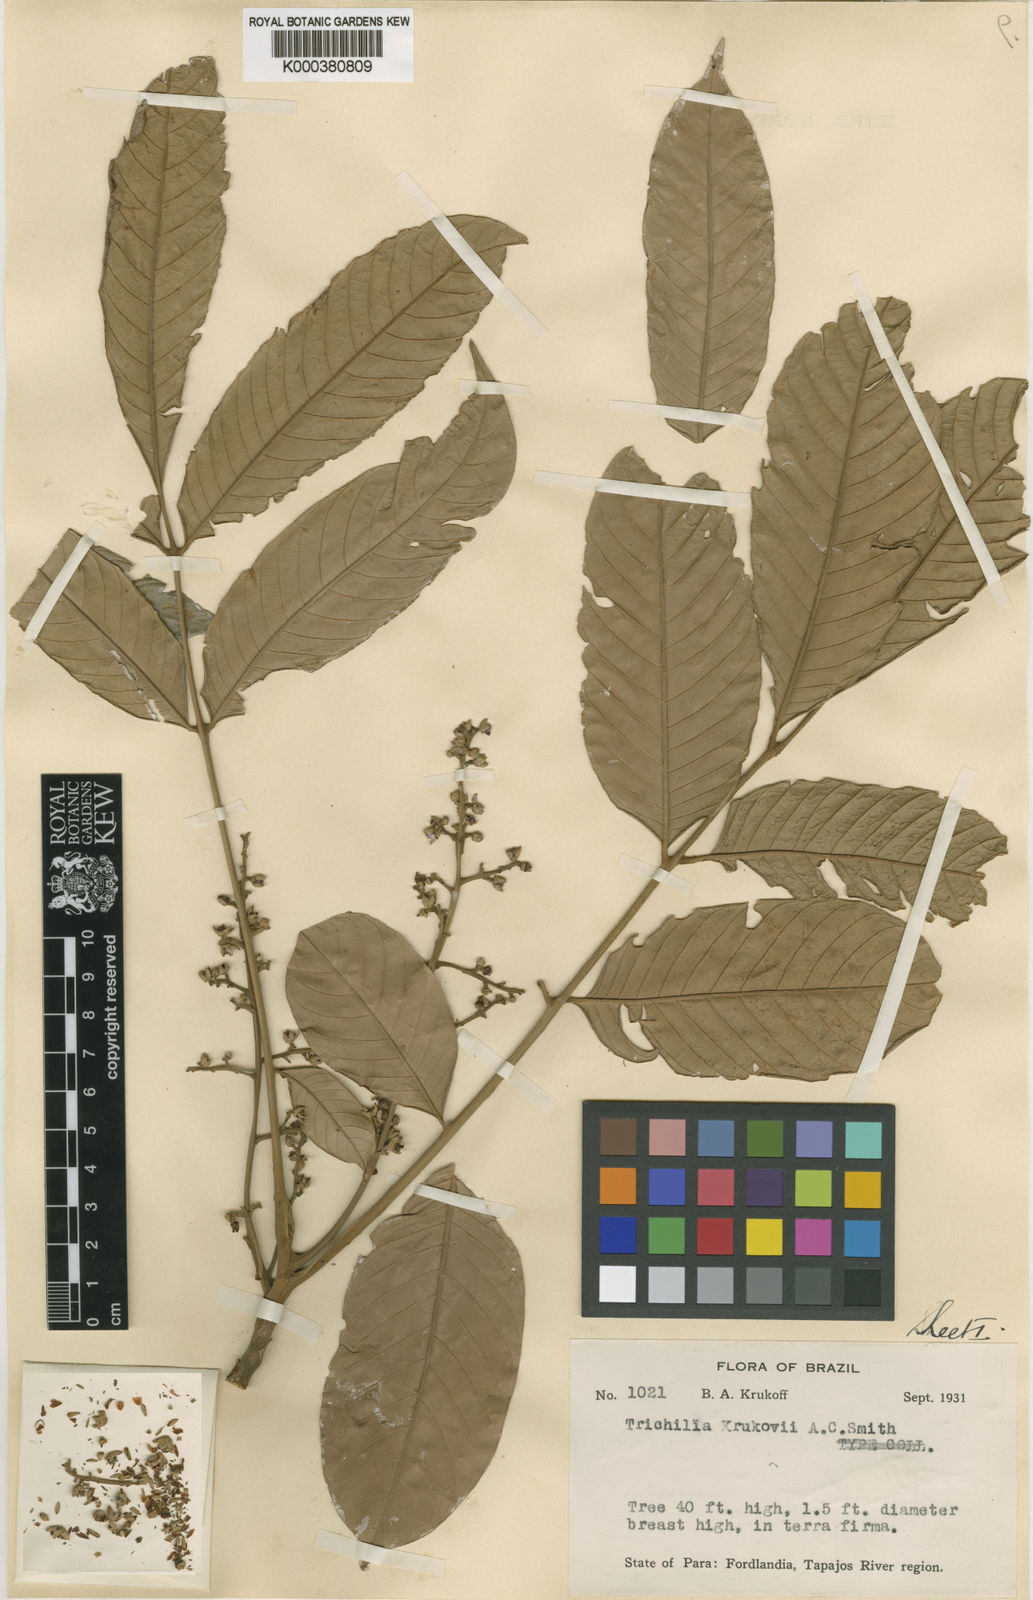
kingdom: Plantae
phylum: Tracheophyta
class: Magnoliopsida
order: Sapindales
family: Meliaceae
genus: Trichilia
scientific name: Trichilia septentrionalis
